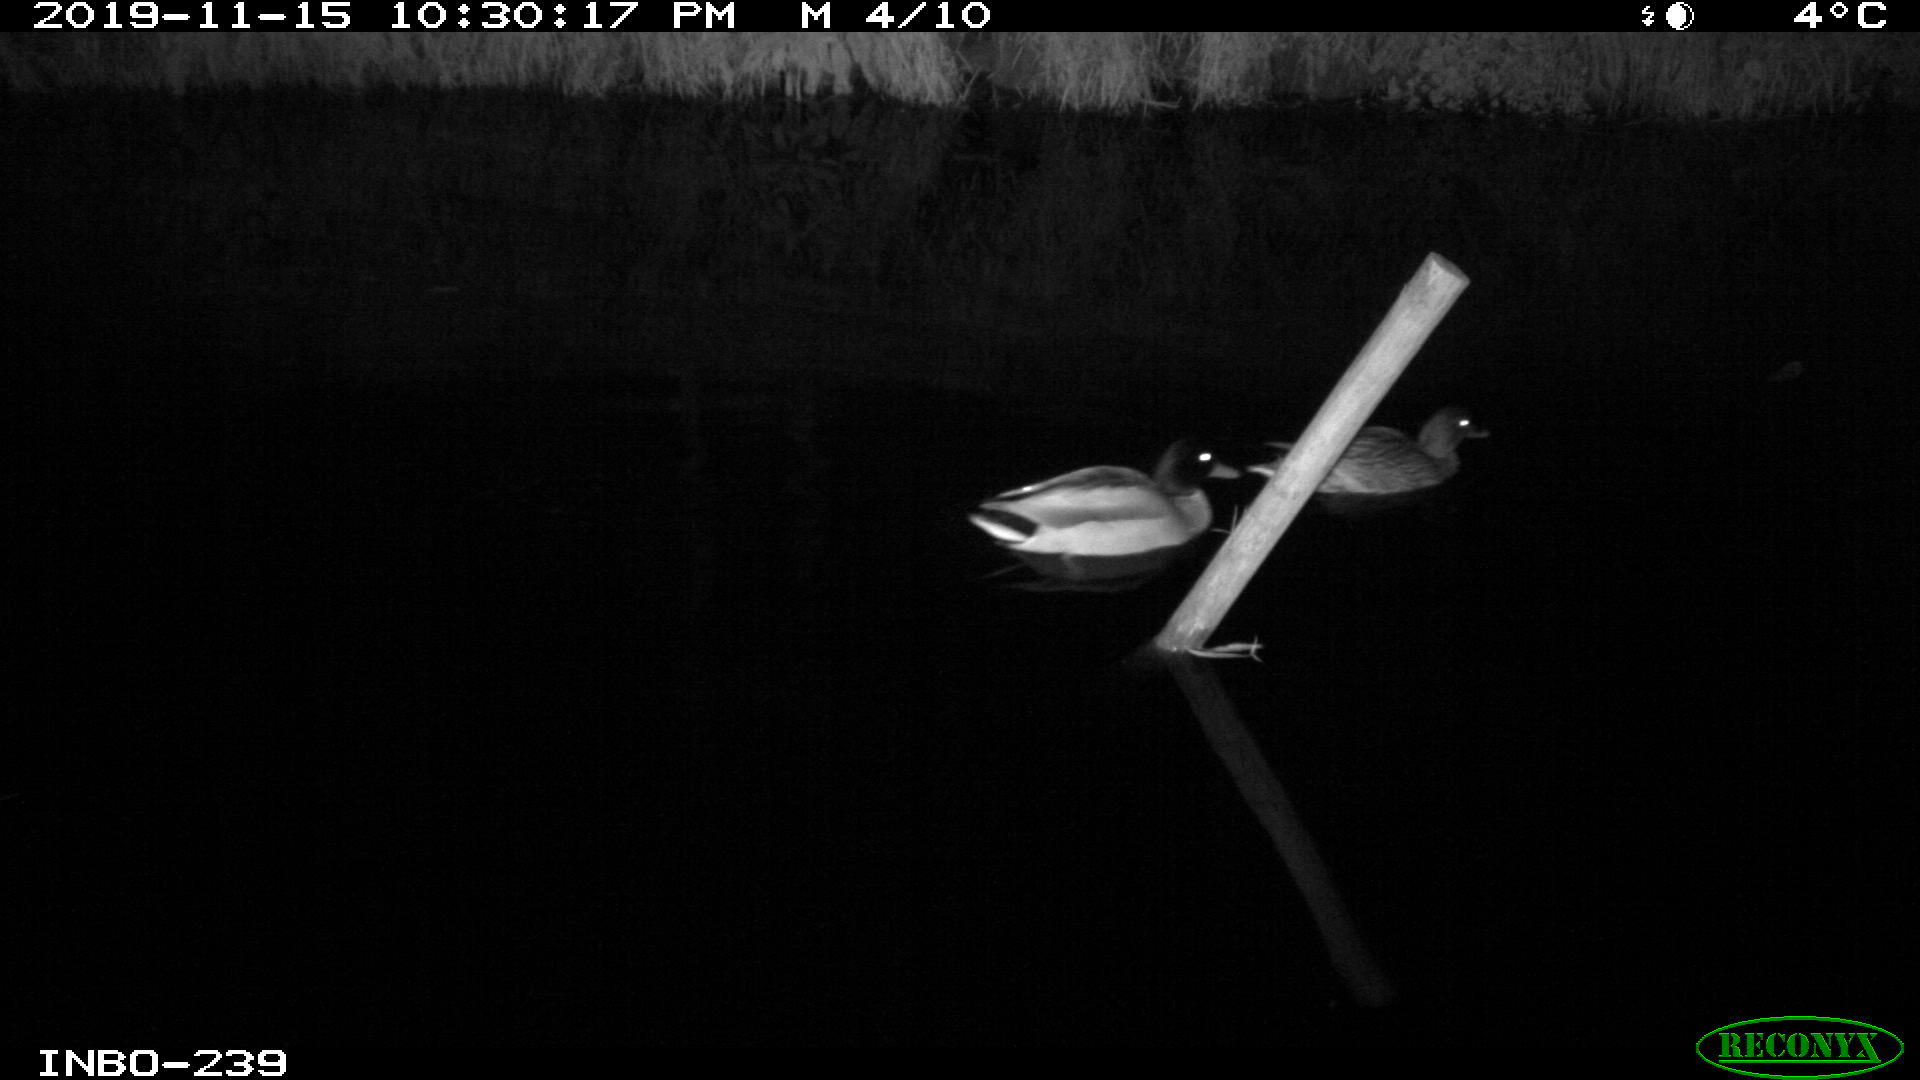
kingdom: Animalia
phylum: Chordata
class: Aves
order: Anseriformes
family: Anatidae
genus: Anas
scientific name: Anas platyrhynchos
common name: Mallard
